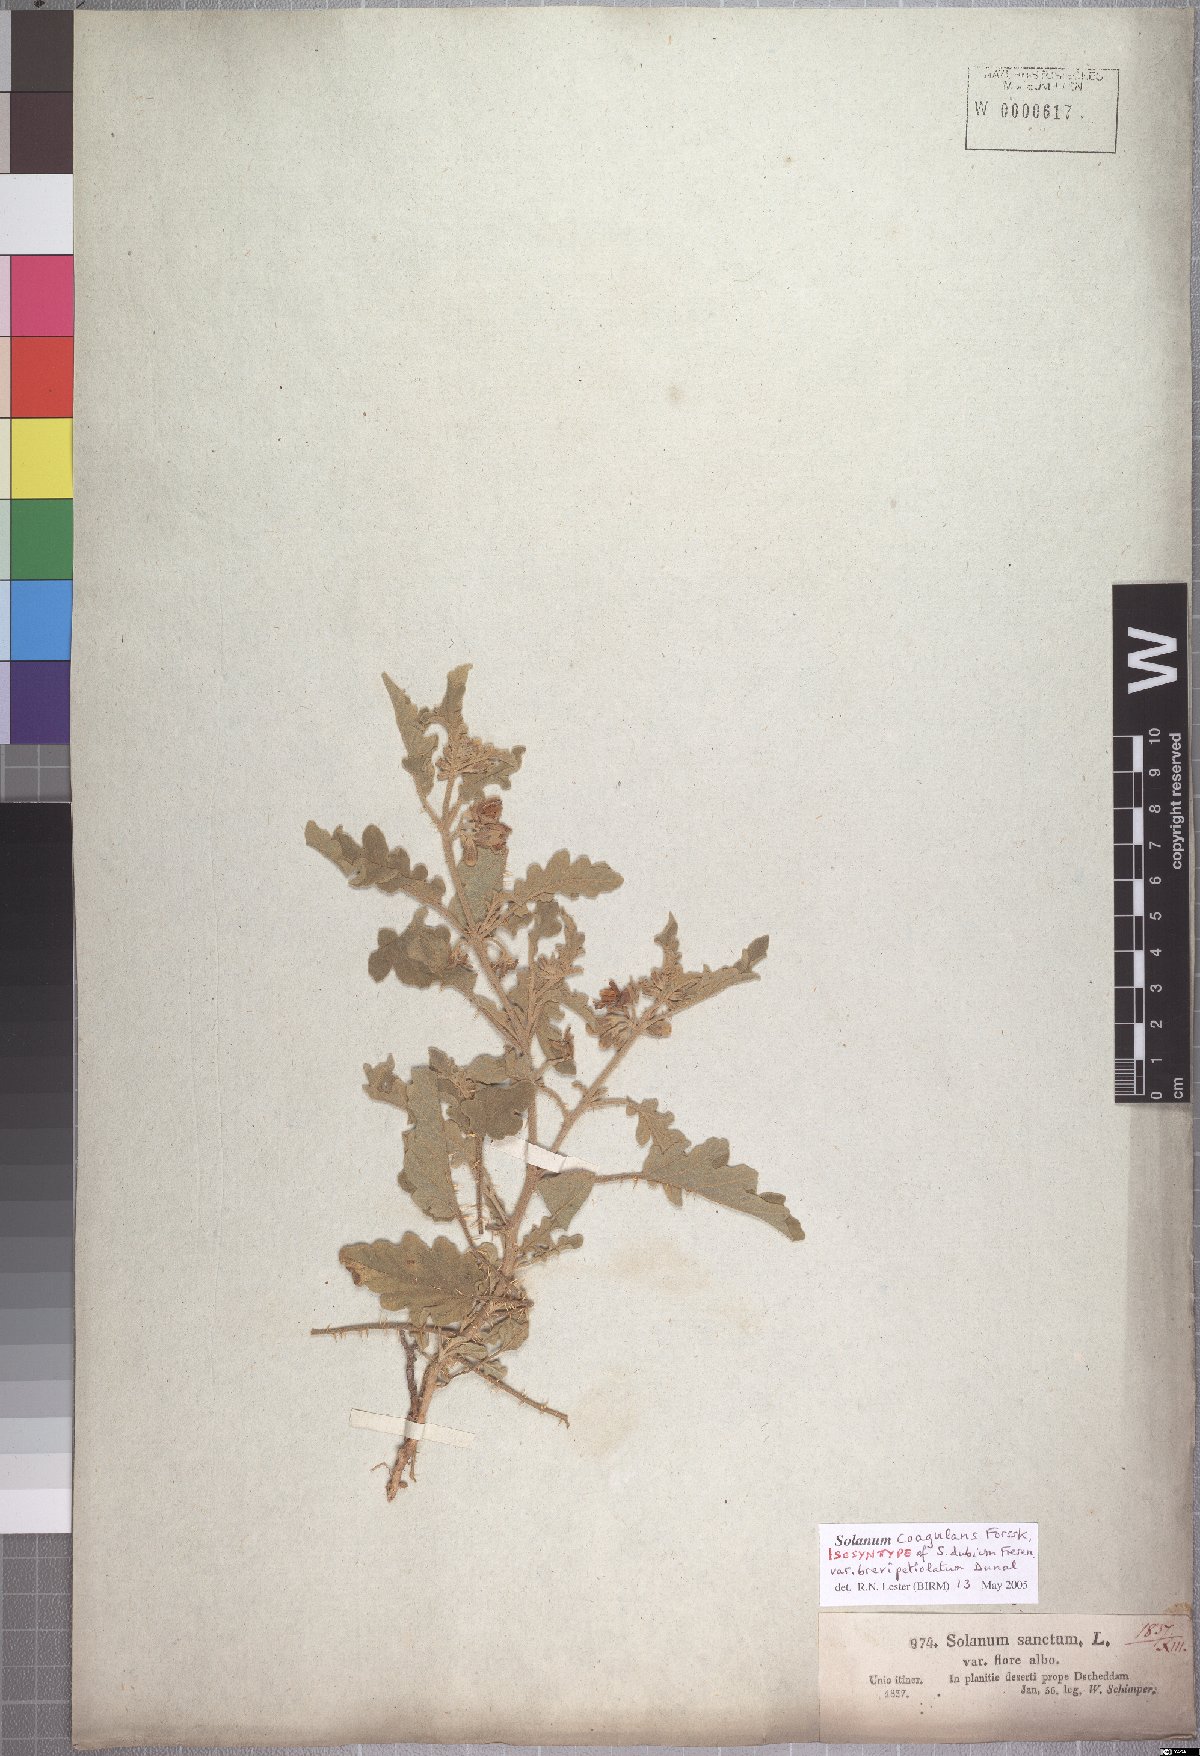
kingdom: Plantae
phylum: Tracheophyta
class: Magnoliopsida
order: Solanales
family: Solanaceae
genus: Solanum
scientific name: Solanum coagulans
